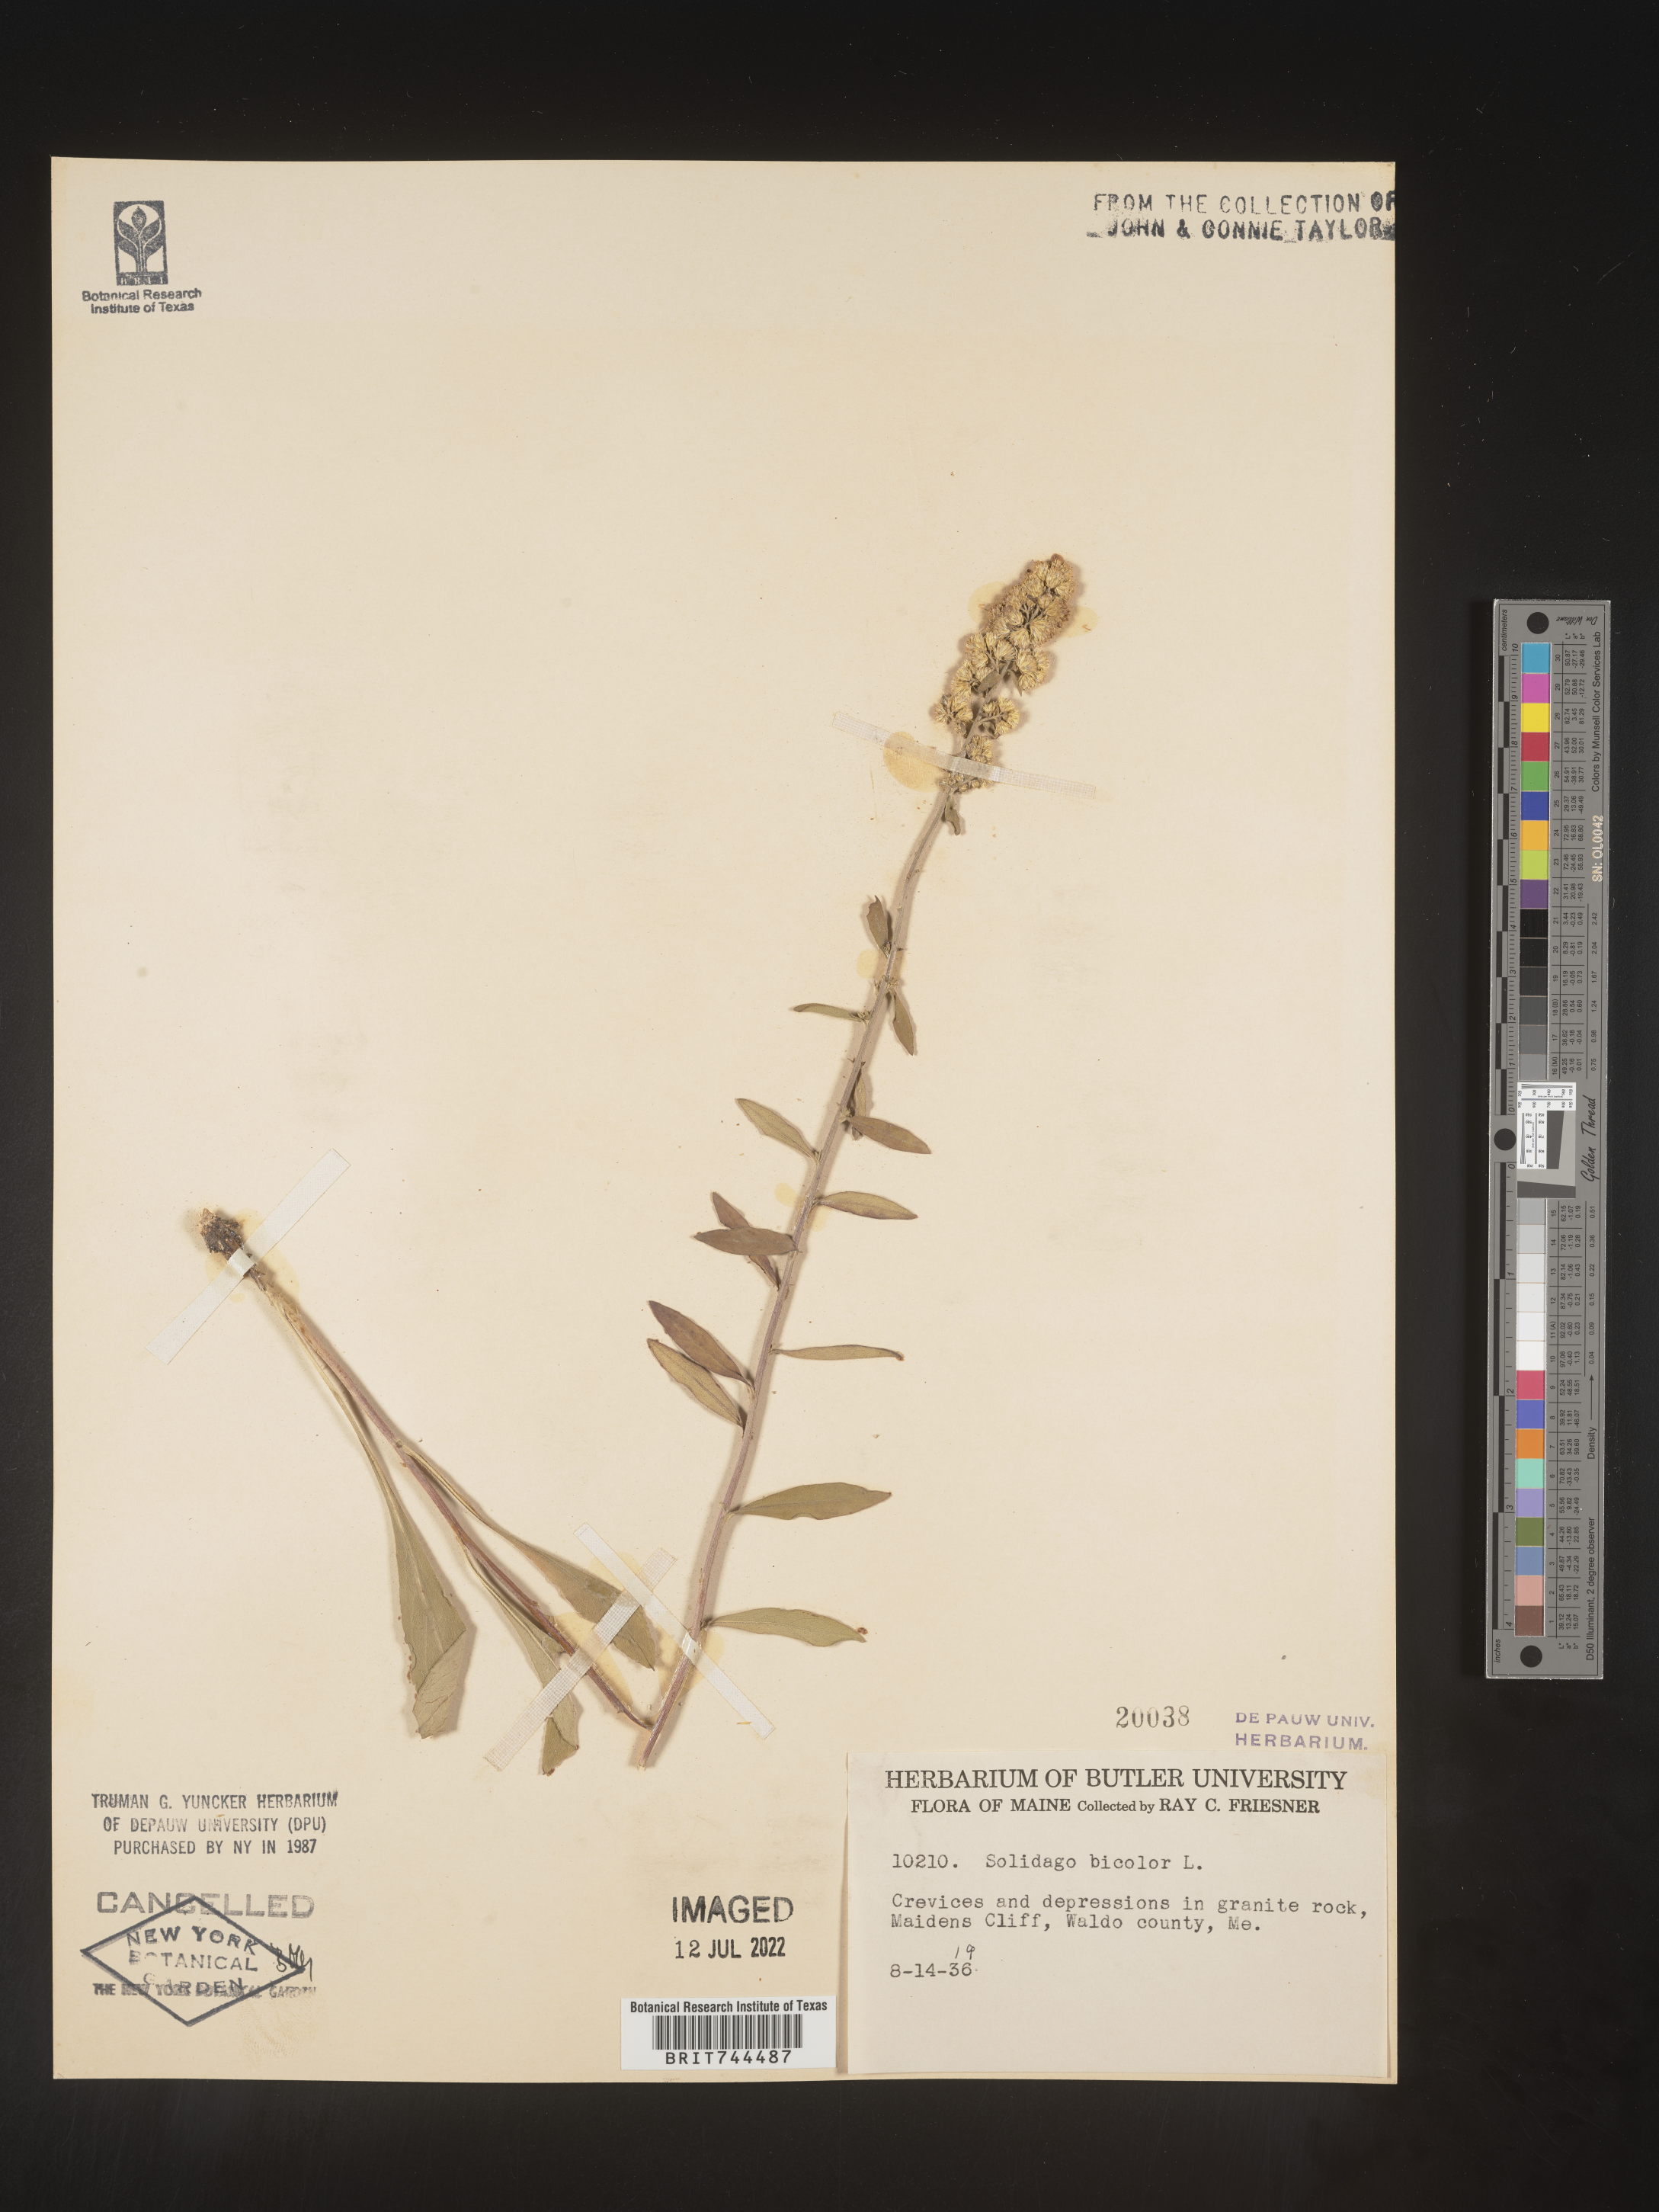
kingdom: Plantae
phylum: Tracheophyta
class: Magnoliopsida
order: Asterales
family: Asteraceae
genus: Solidago
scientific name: Solidago bicolor
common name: Silverrod
